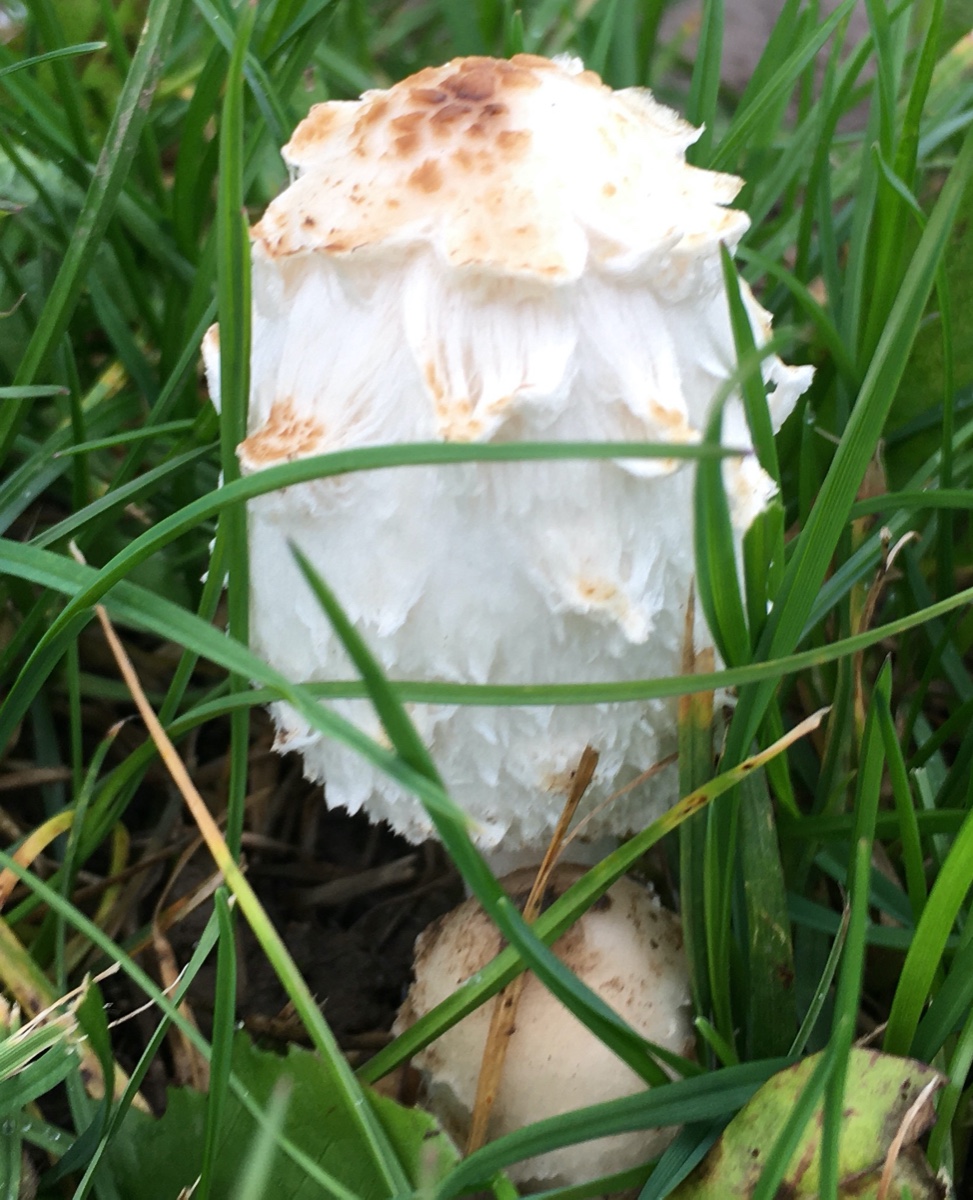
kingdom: Fungi
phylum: Basidiomycota
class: Agaricomycetes
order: Agaricales
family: Agaricaceae
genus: Coprinus
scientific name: Coprinus comatus
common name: stor parykhat
